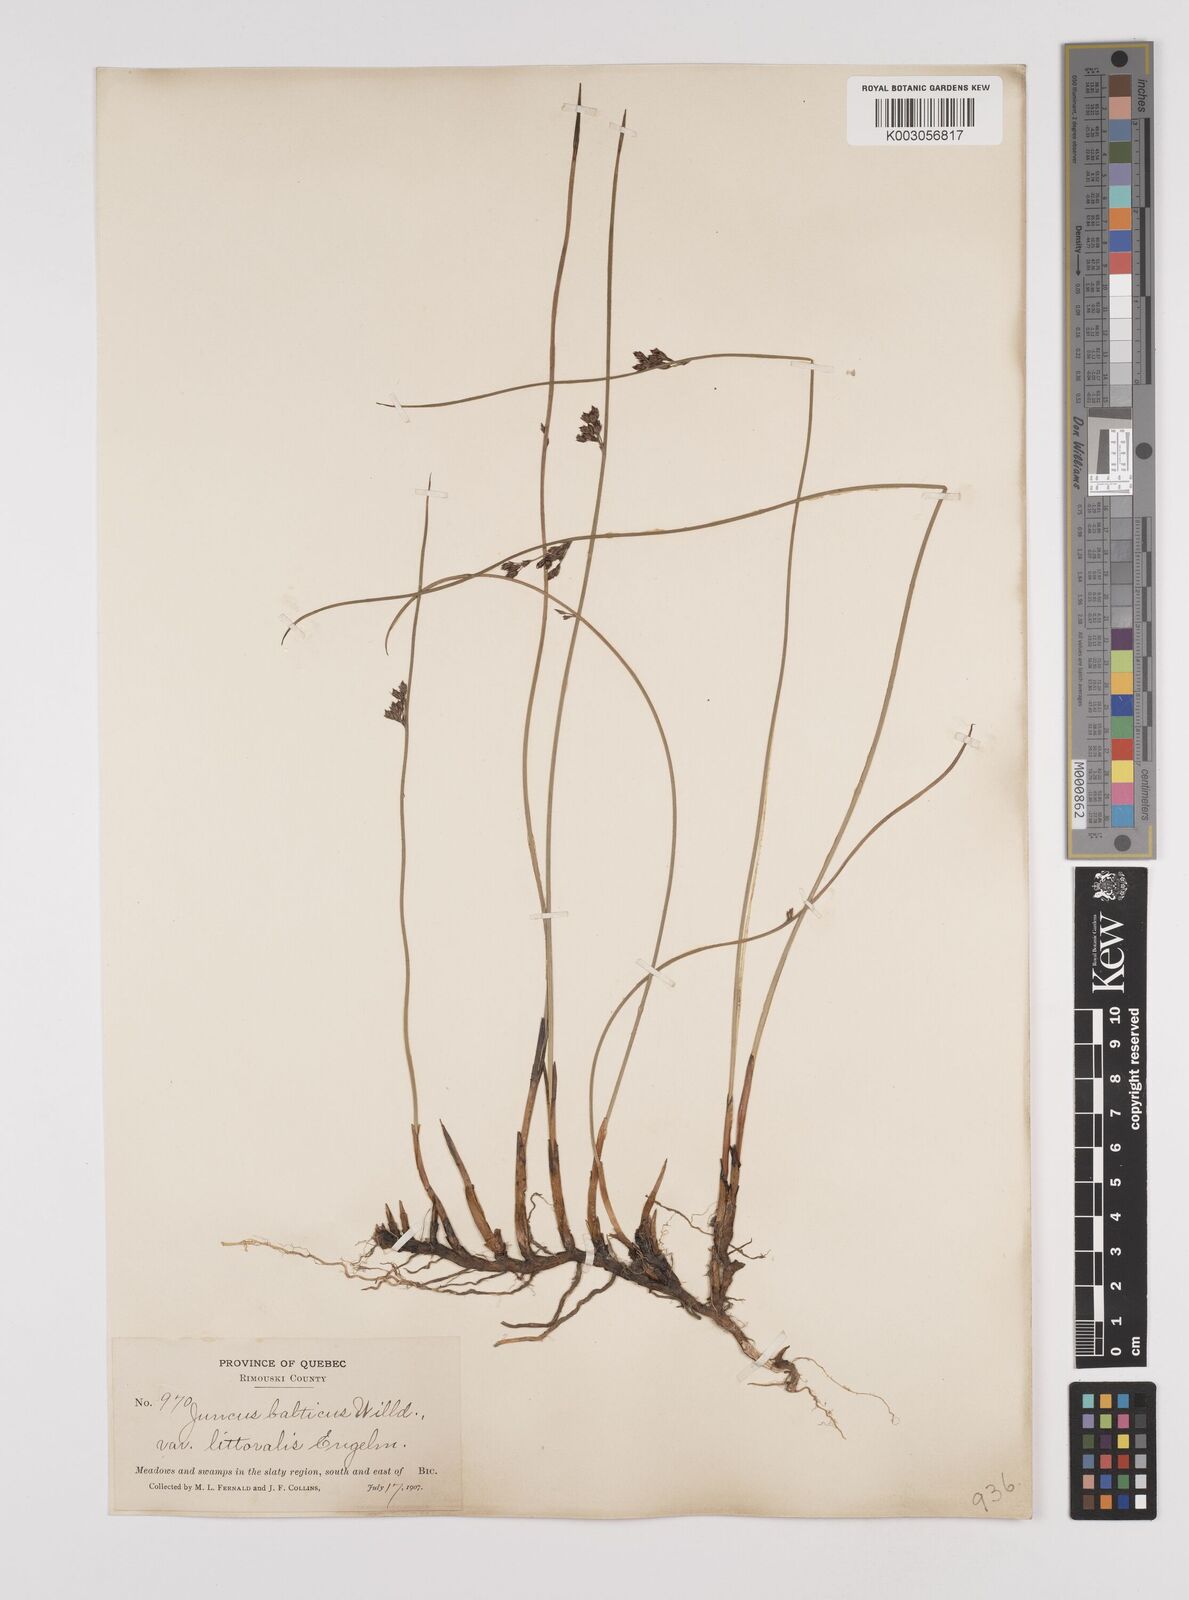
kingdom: Plantae
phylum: Tracheophyta
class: Liliopsida
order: Poales
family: Juncaceae
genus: Juncus
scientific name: Juncus balticus
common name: Baltic rush
